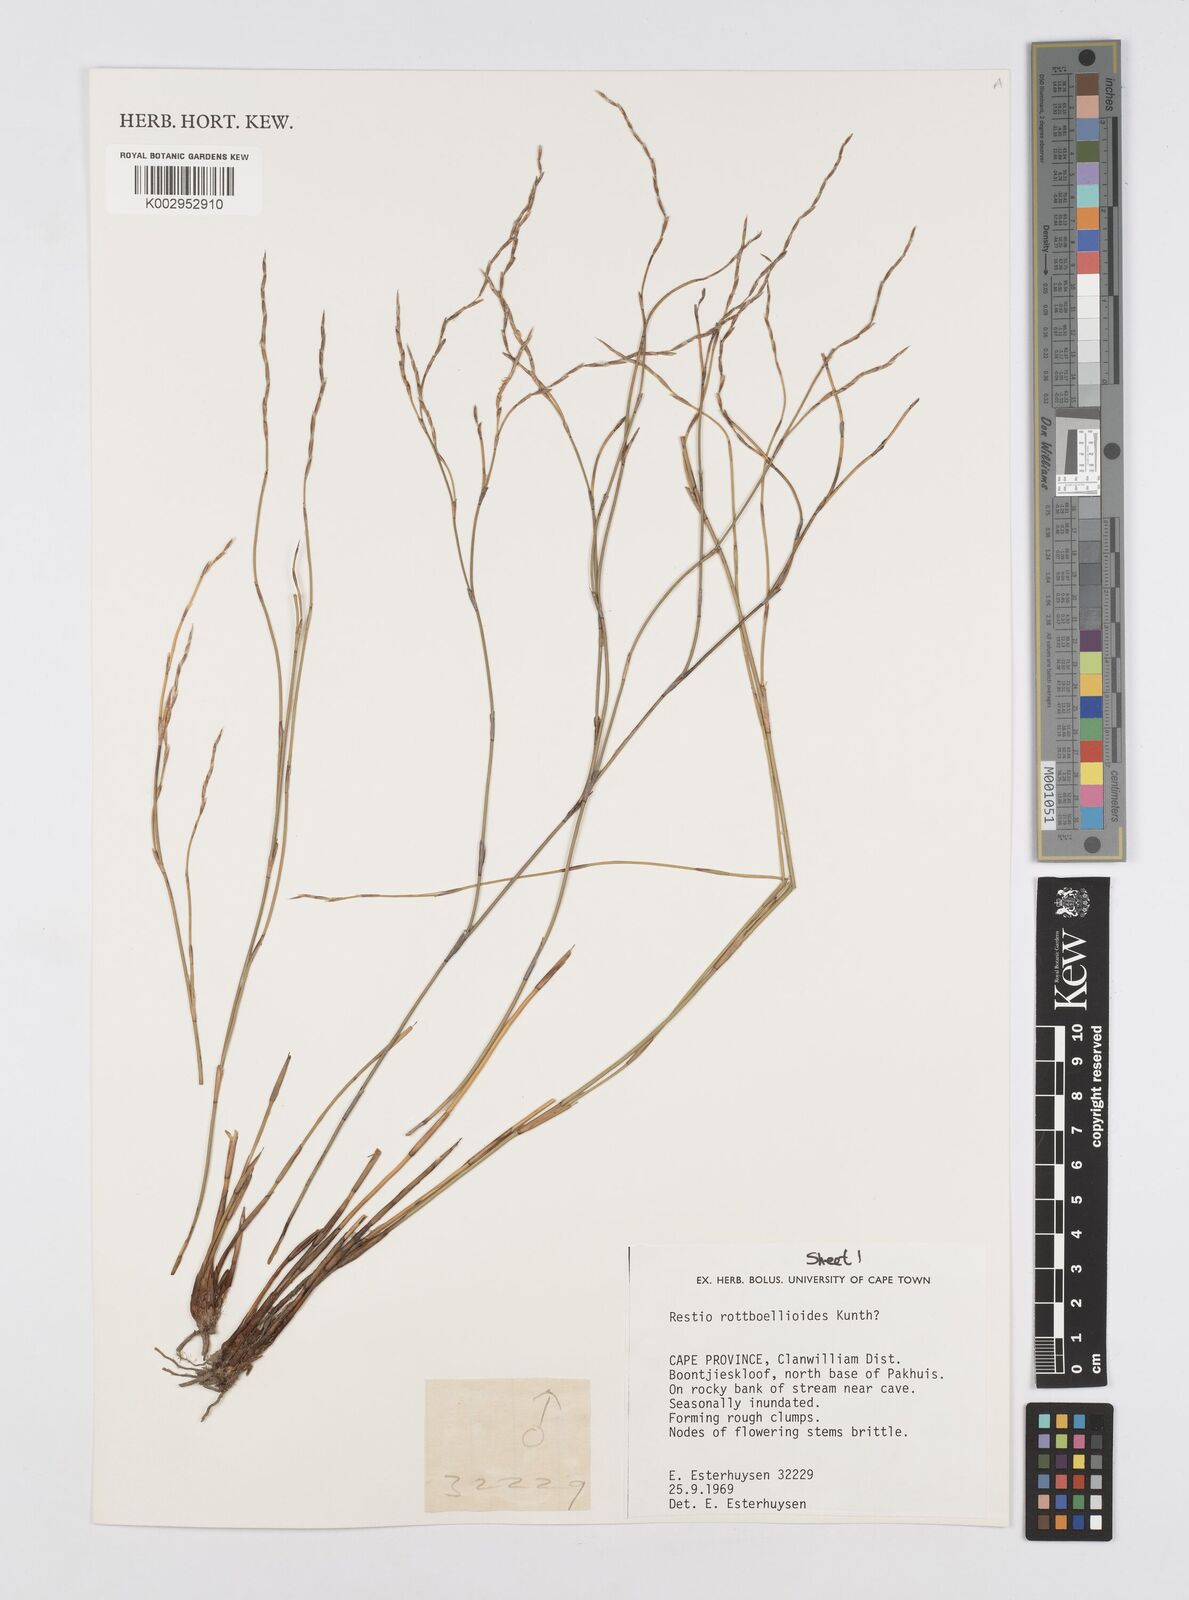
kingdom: Plantae
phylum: Tracheophyta
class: Liliopsida
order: Poales
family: Restionaceae
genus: Restio
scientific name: Restio rottboellioides
